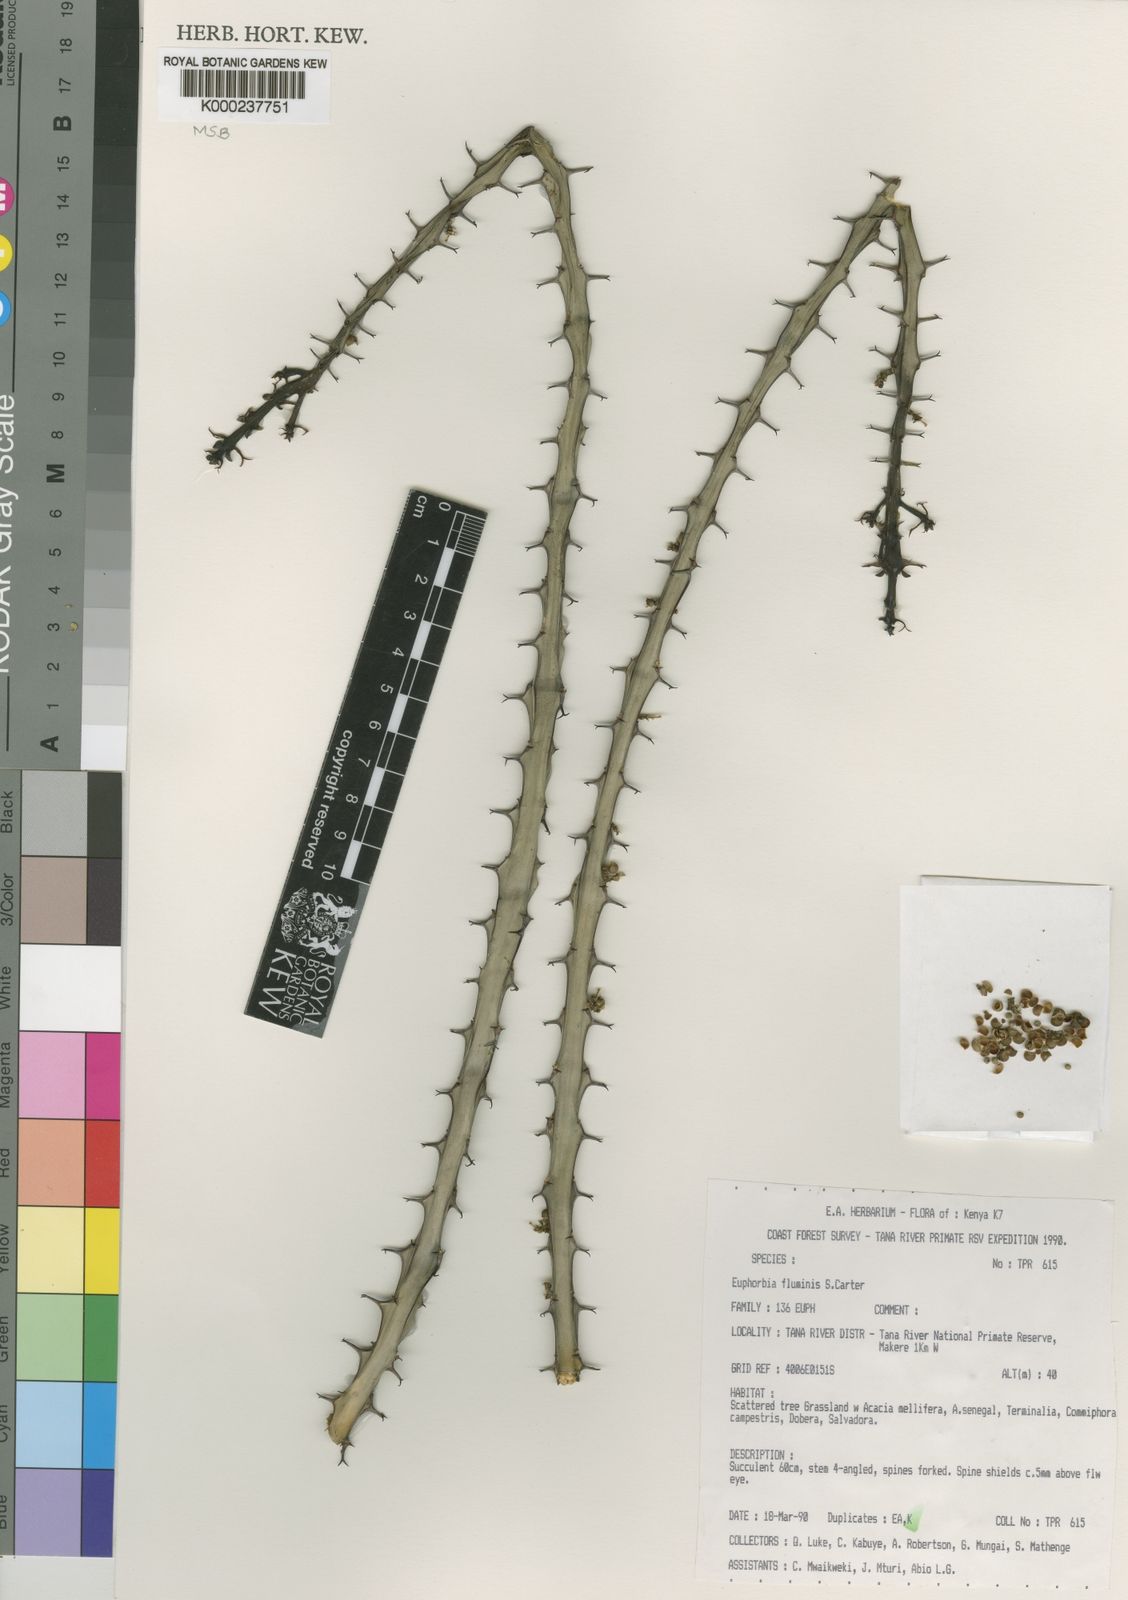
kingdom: Plantae
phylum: Tracheophyta
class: Magnoliopsida
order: Malpighiales
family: Euphorbiaceae
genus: Euphorbia
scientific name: Euphorbia fluminis
